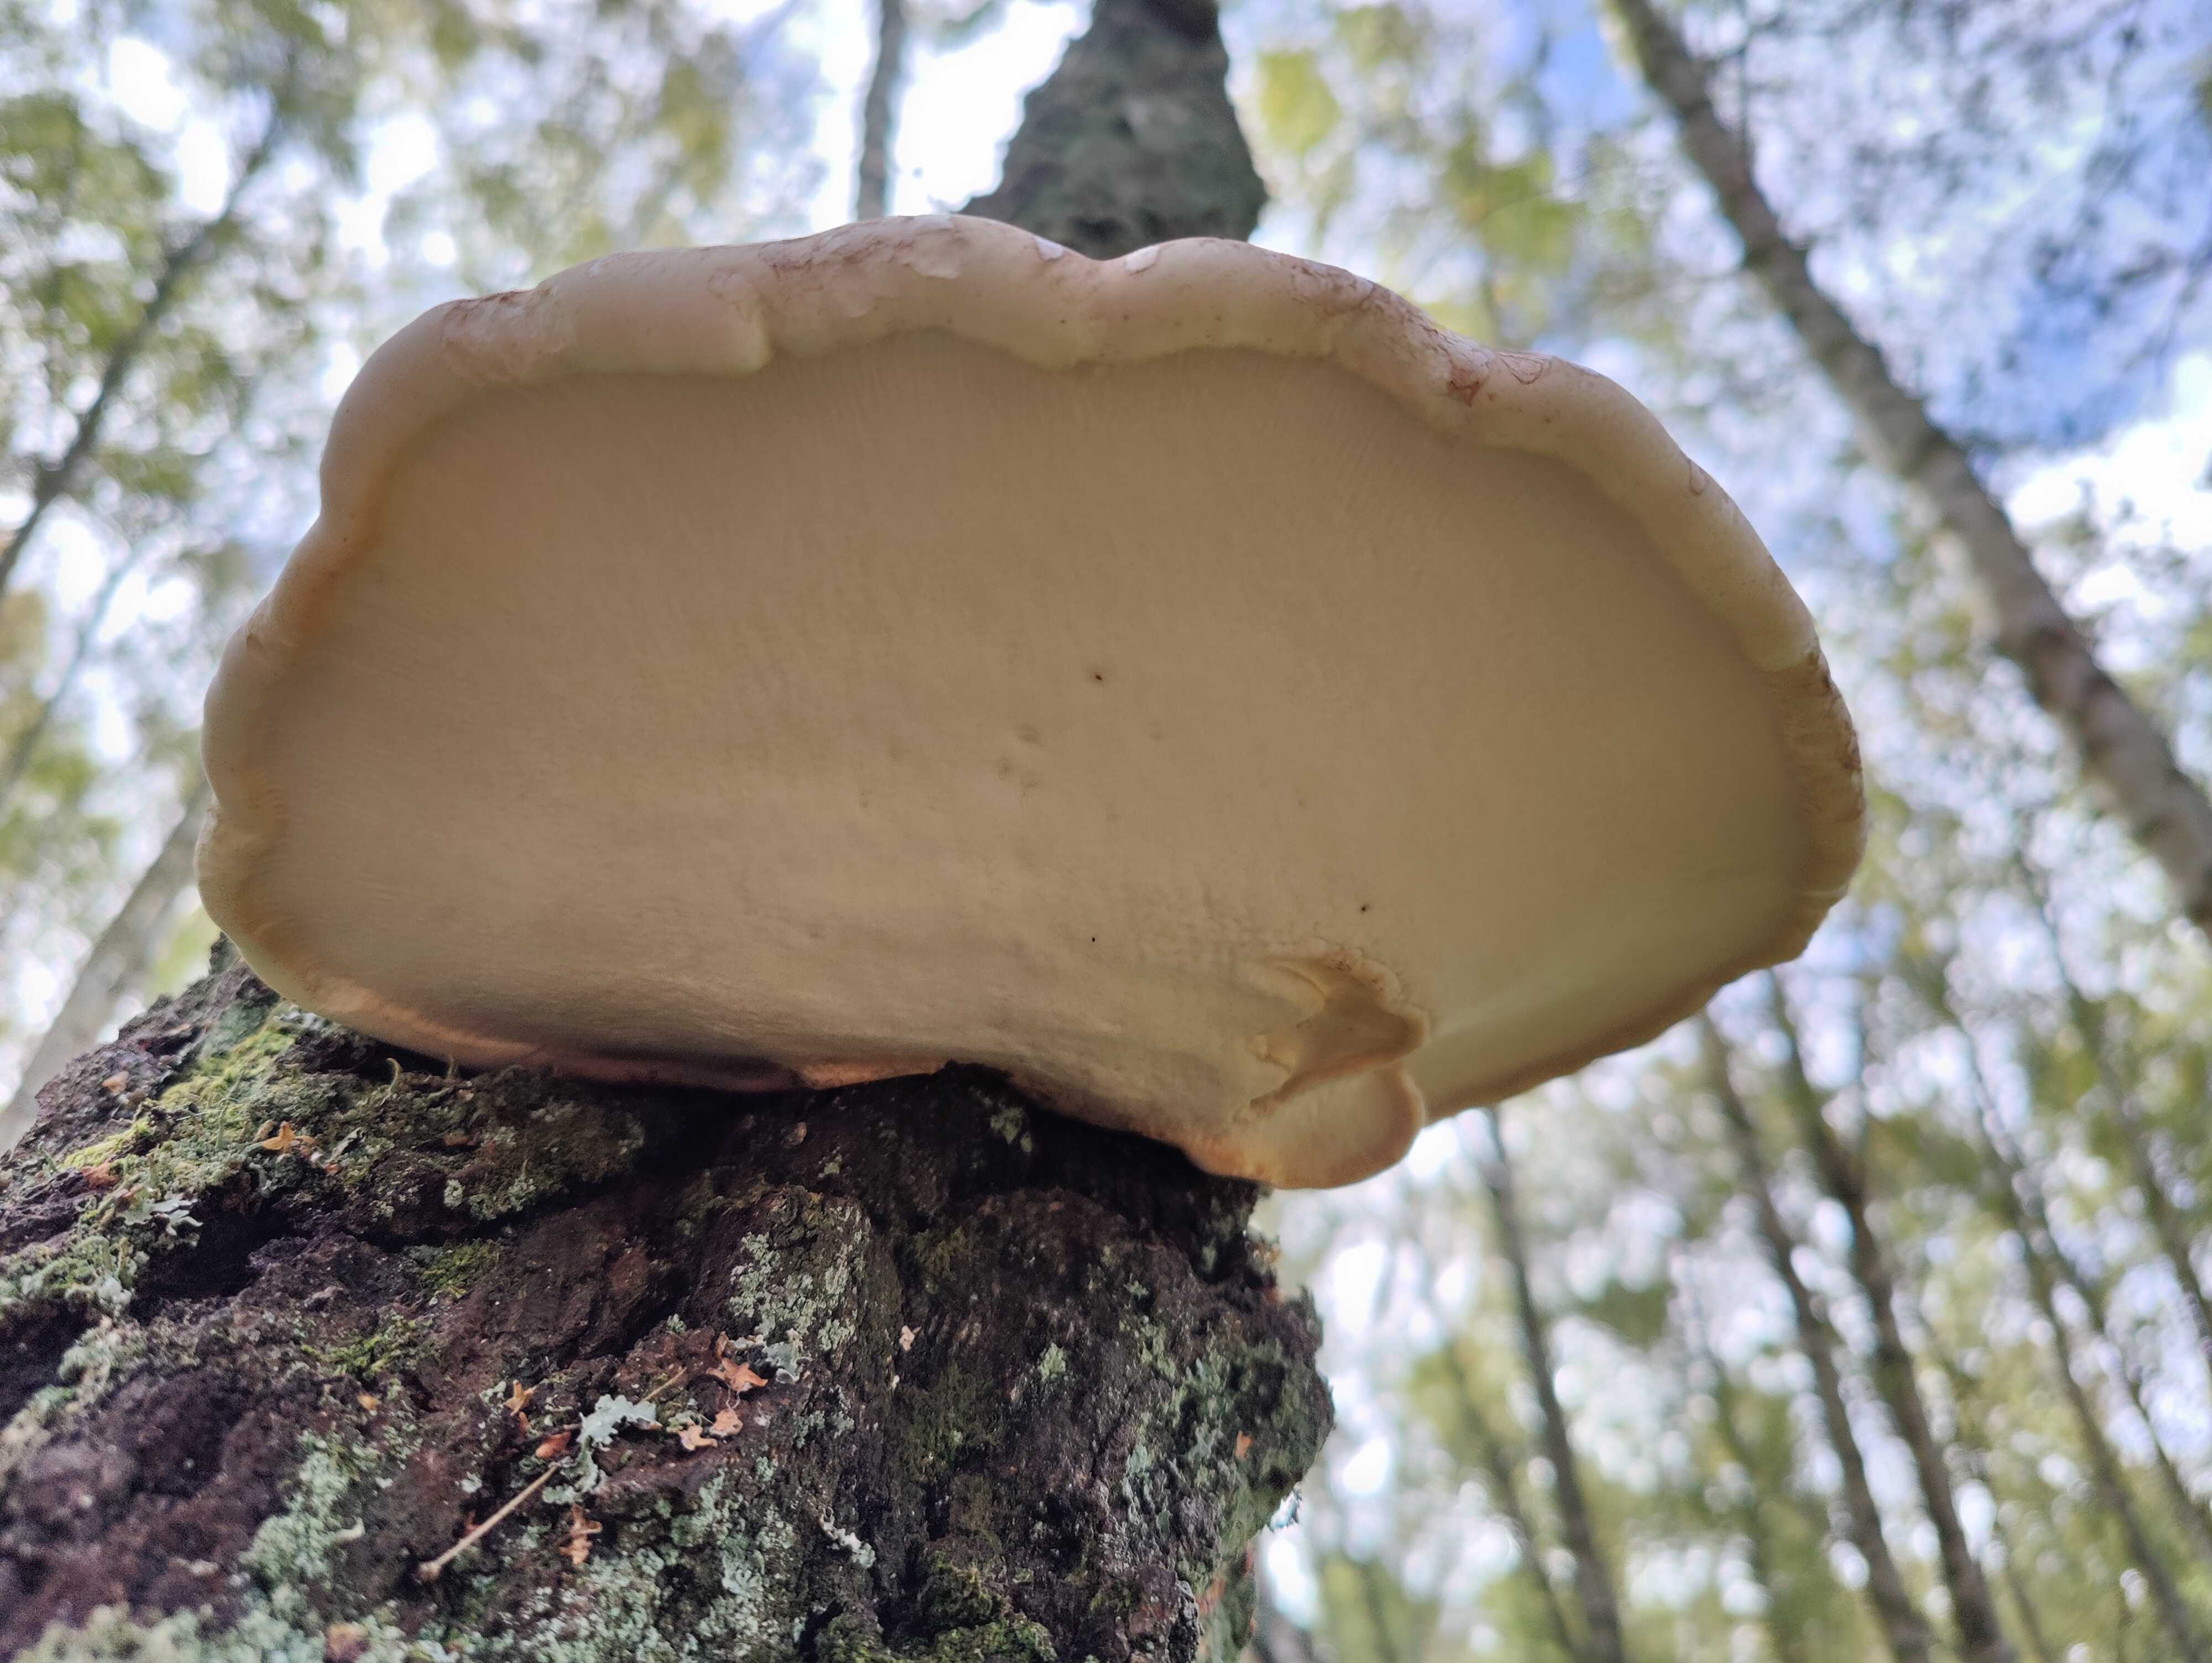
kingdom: Fungi
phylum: Basidiomycota
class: Agaricomycetes
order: Polyporales
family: Fomitopsidaceae
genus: Fomitopsis
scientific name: Fomitopsis betulina
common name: birkeporesvamp
